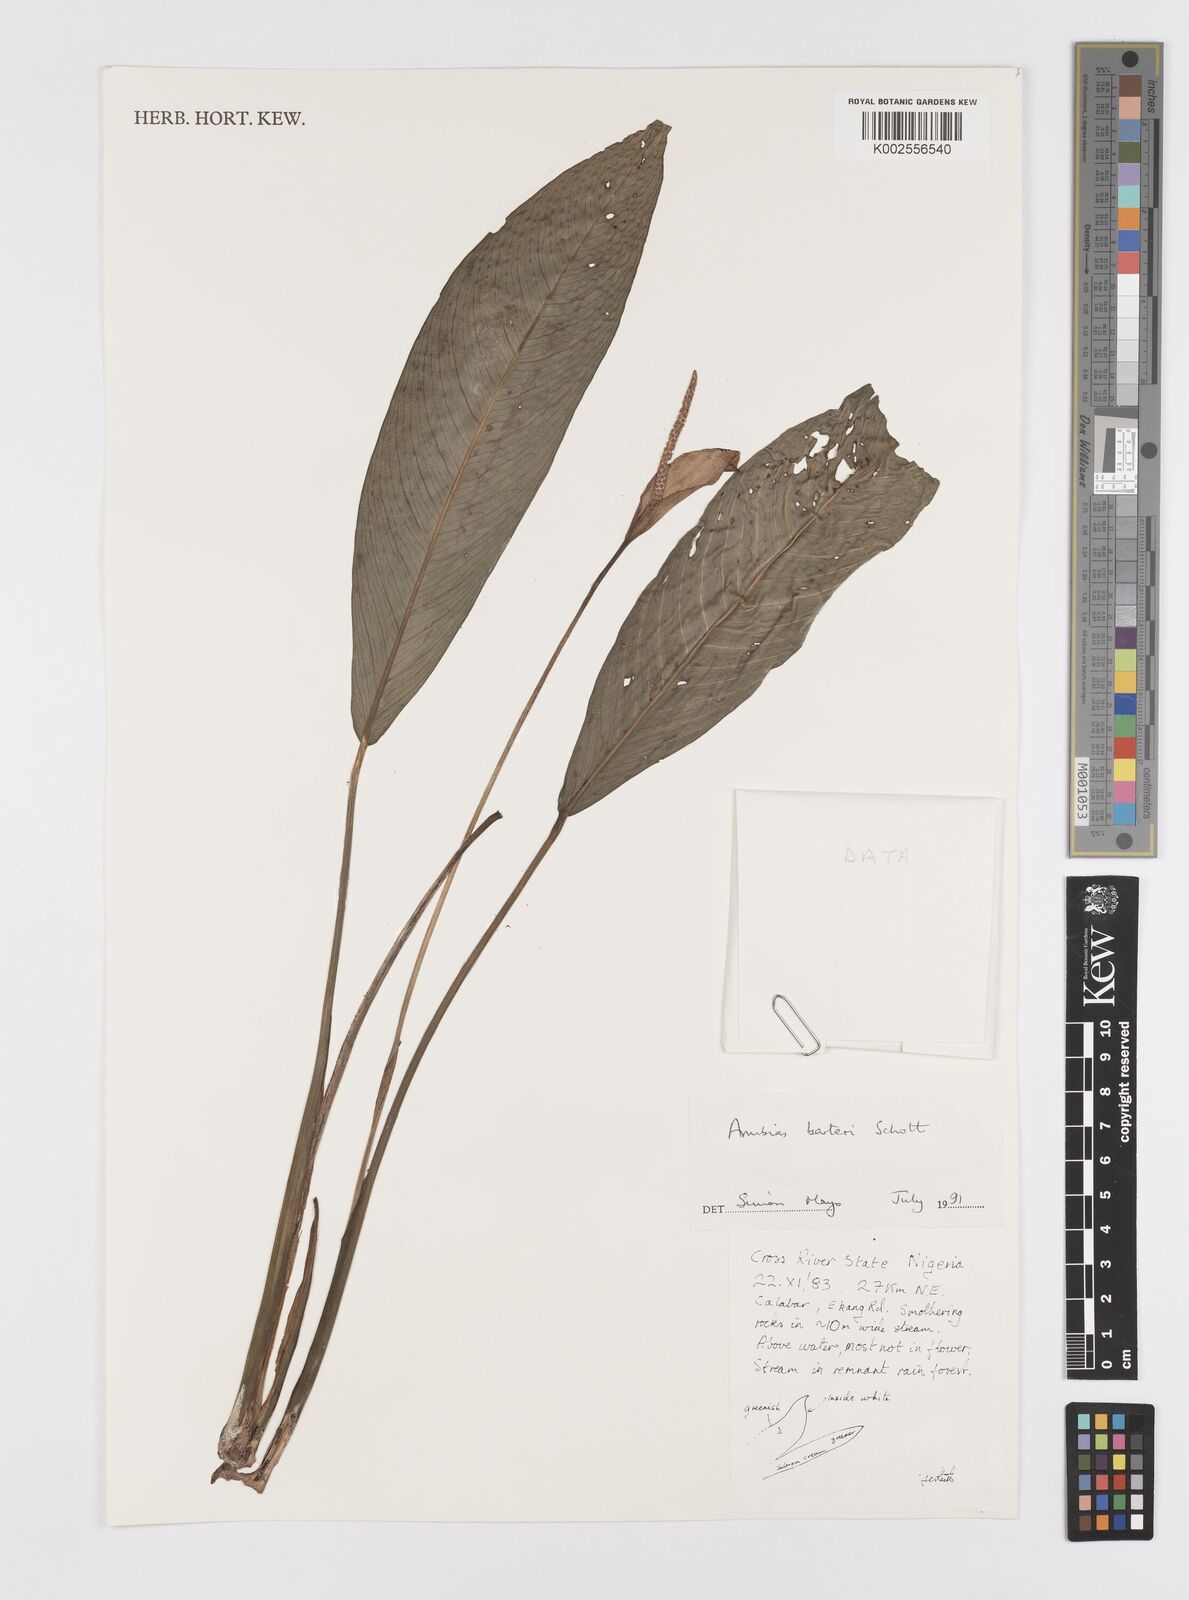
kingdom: Plantae
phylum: Tracheophyta
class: Liliopsida
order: Alismatales
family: Araceae
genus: Anubias
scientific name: Anubias barteri
